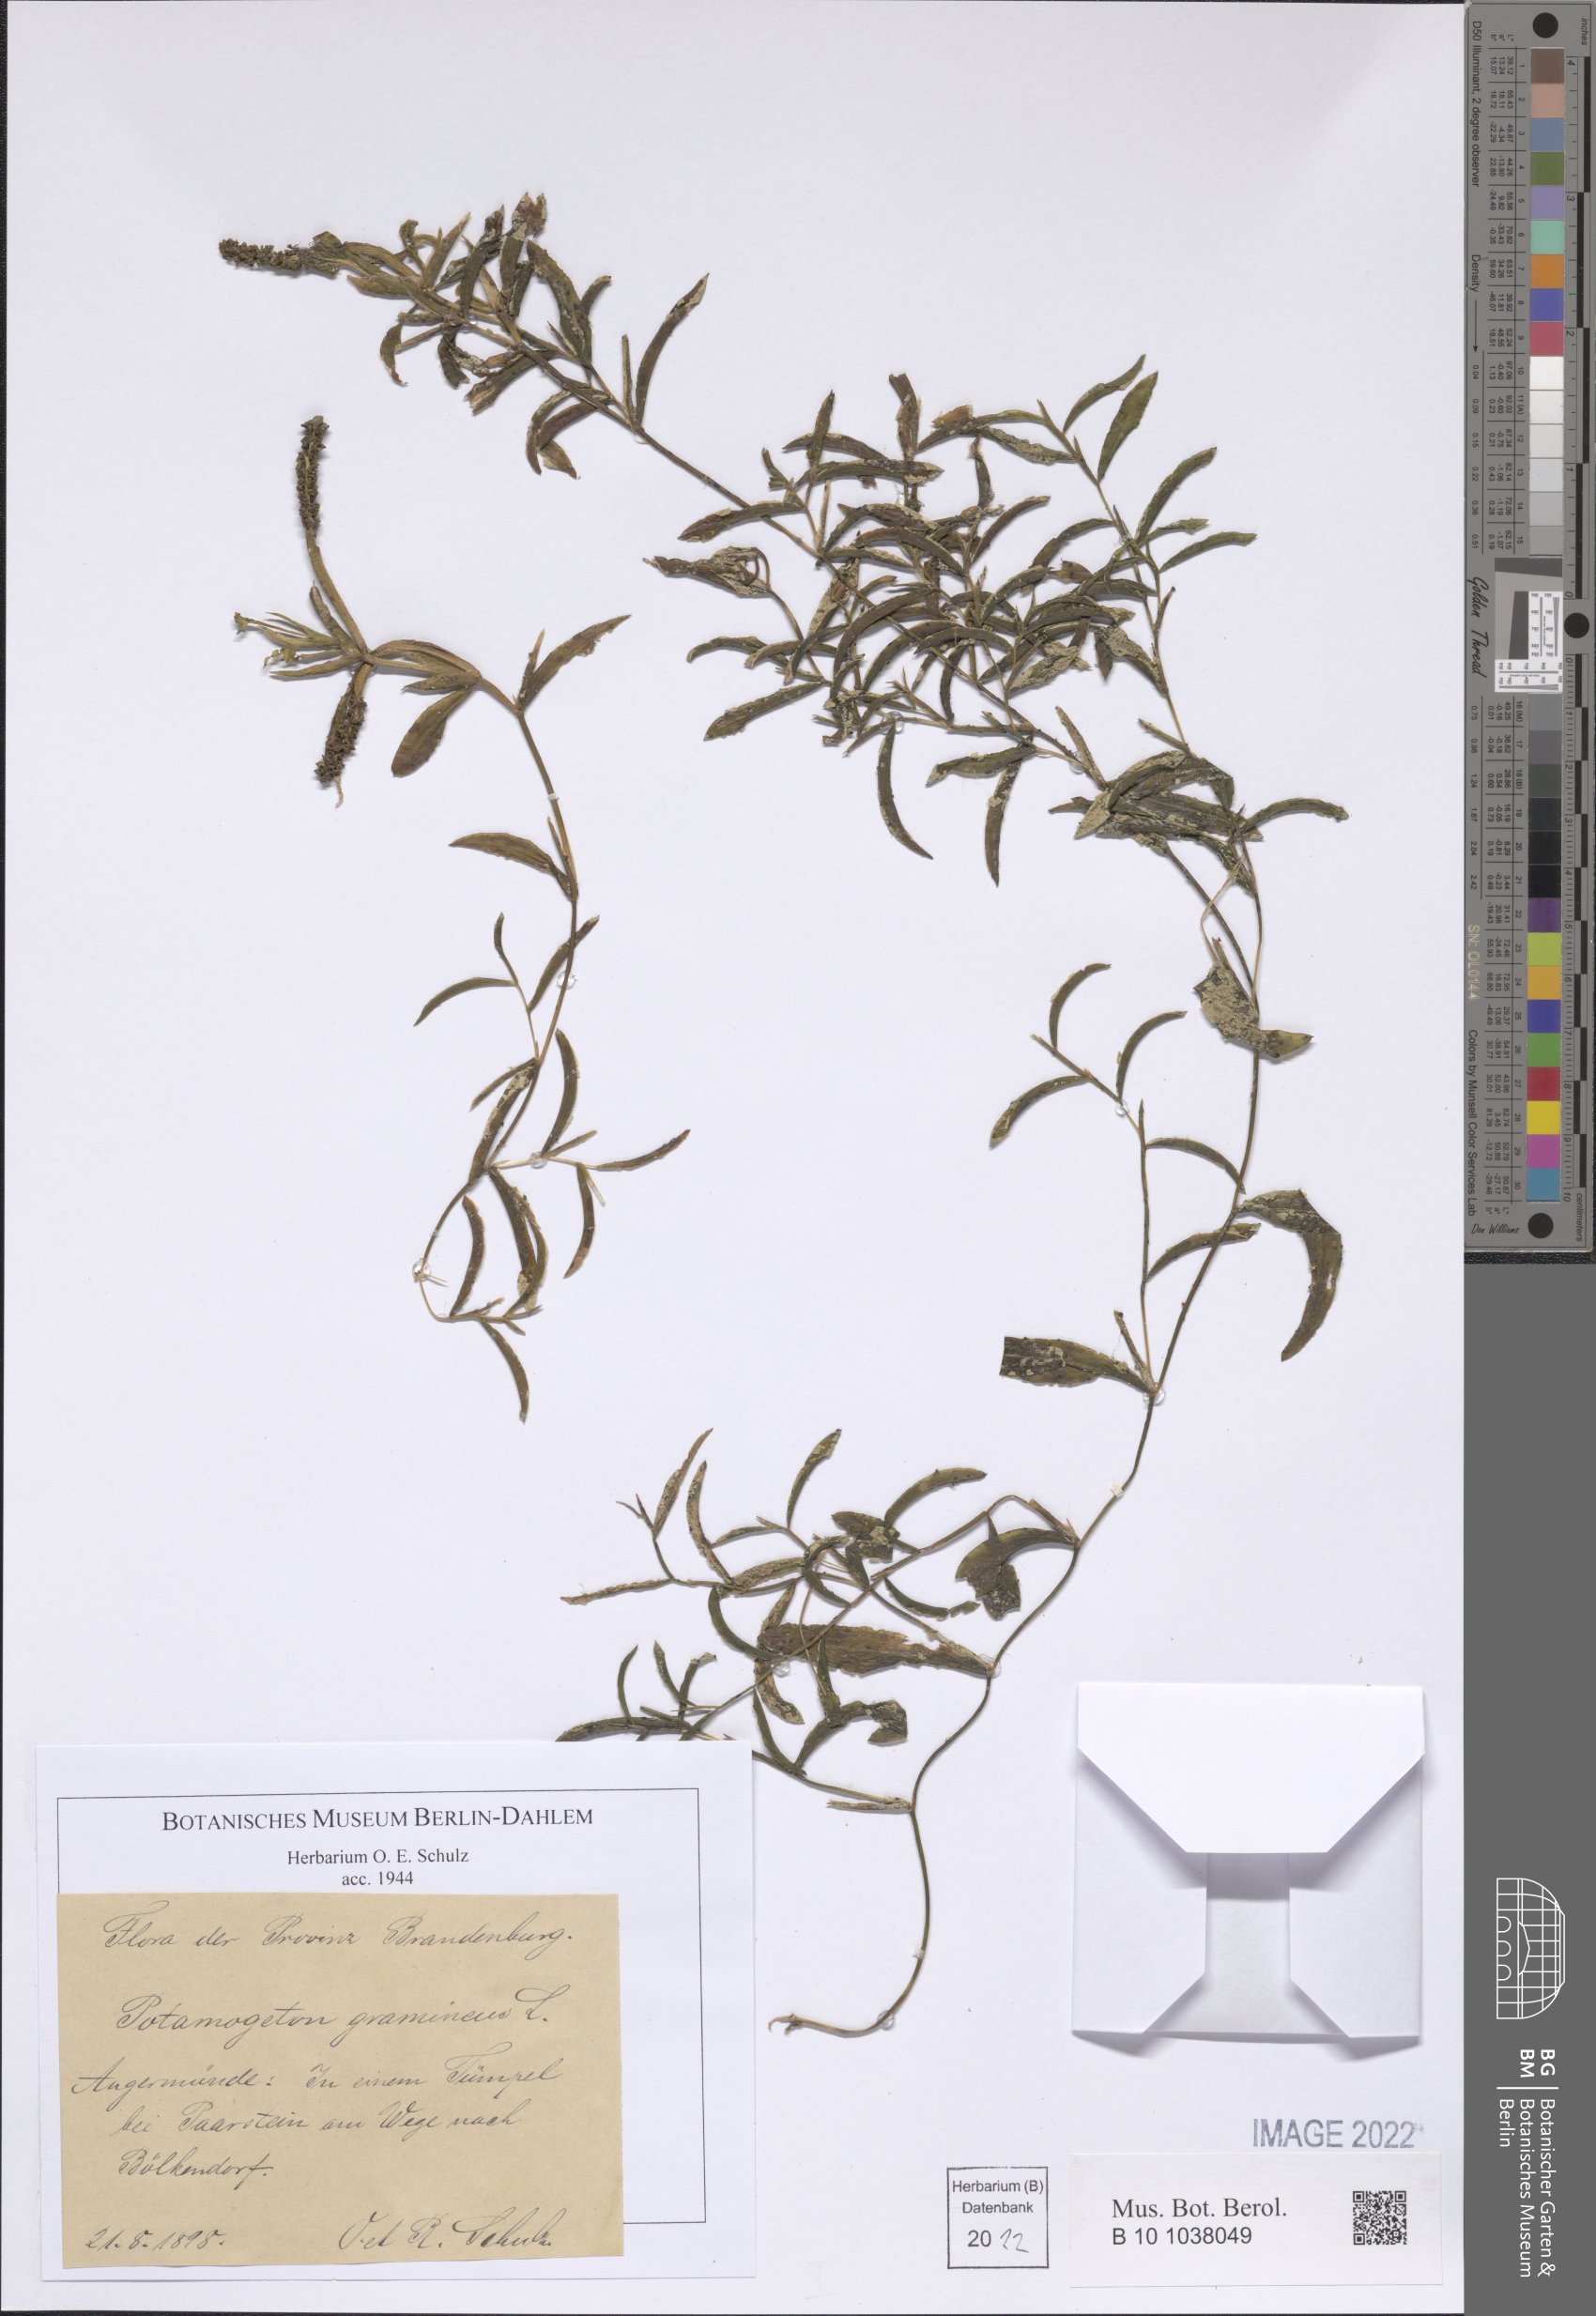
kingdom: Plantae
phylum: Tracheophyta
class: Liliopsida
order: Alismatales
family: Potamogetonaceae
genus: Potamogeton
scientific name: Potamogeton gramineus
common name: Various-leaved pondweed
